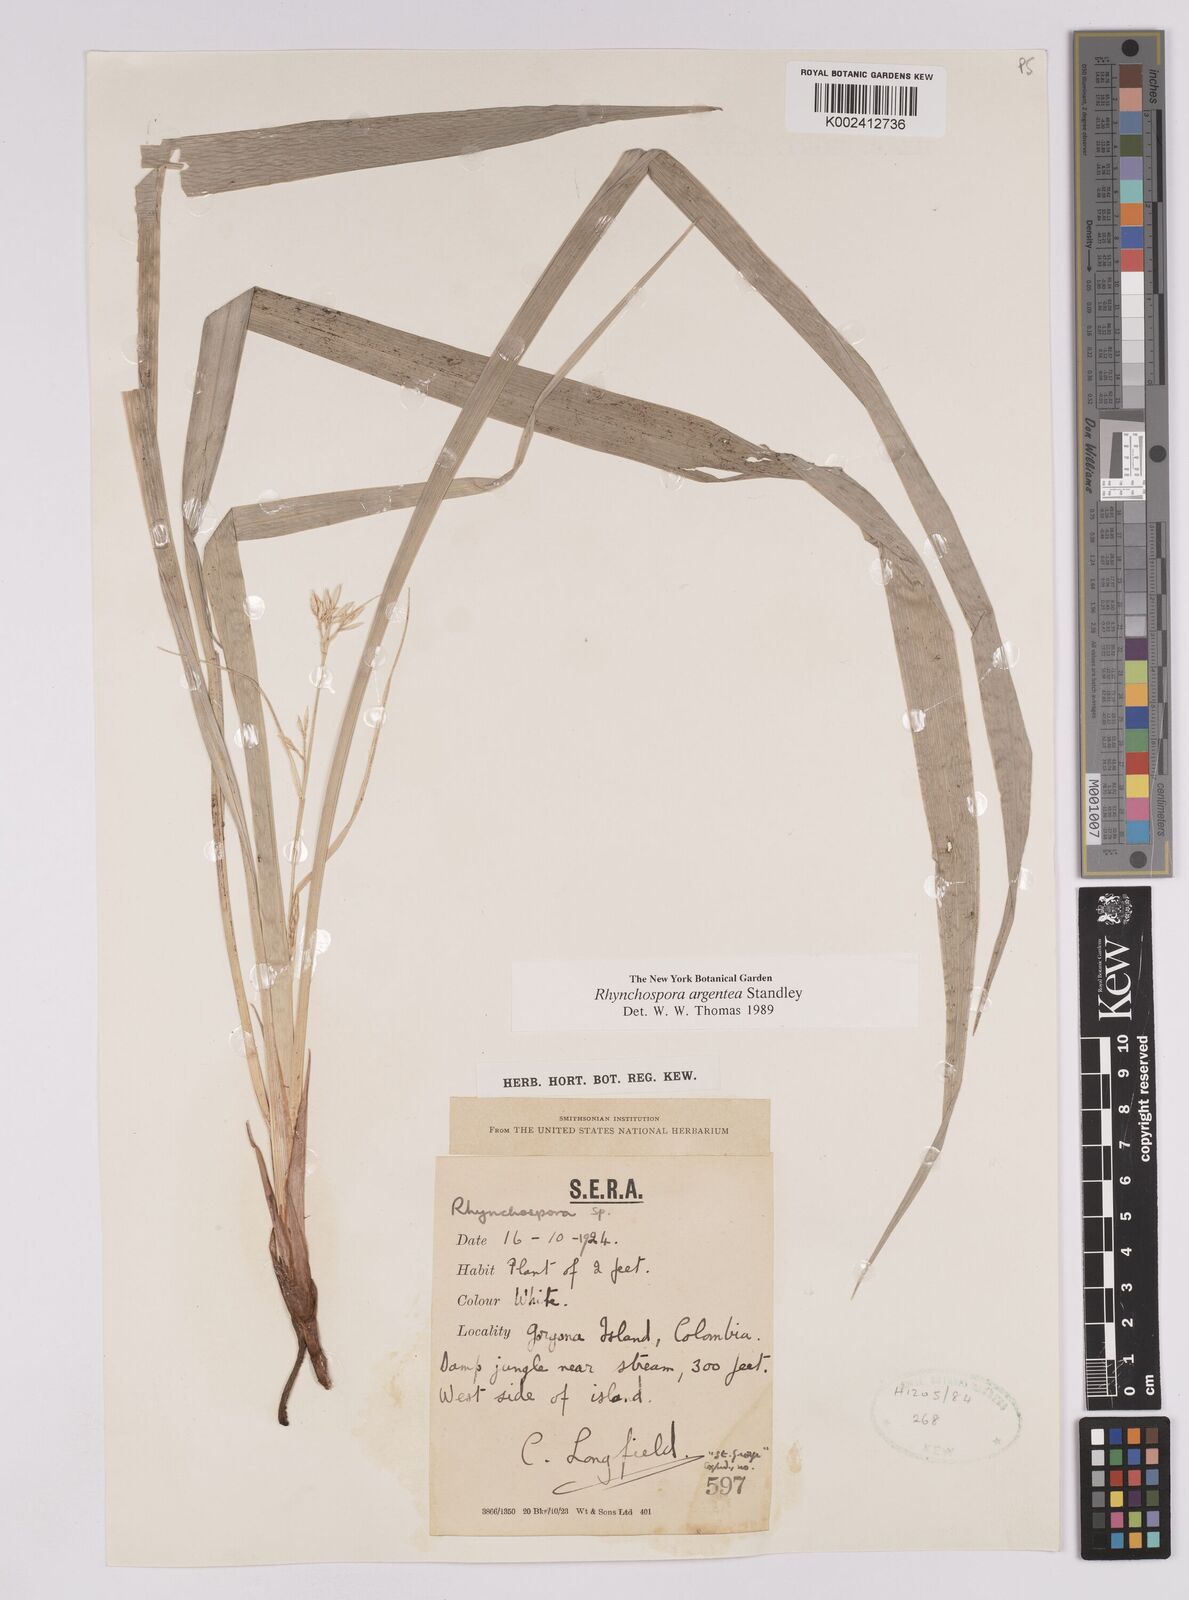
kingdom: Plantae
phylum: Tracheophyta
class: Liliopsida
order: Poales
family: Cyperaceae
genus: Rhynchospora
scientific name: Rhynchospora argentea
